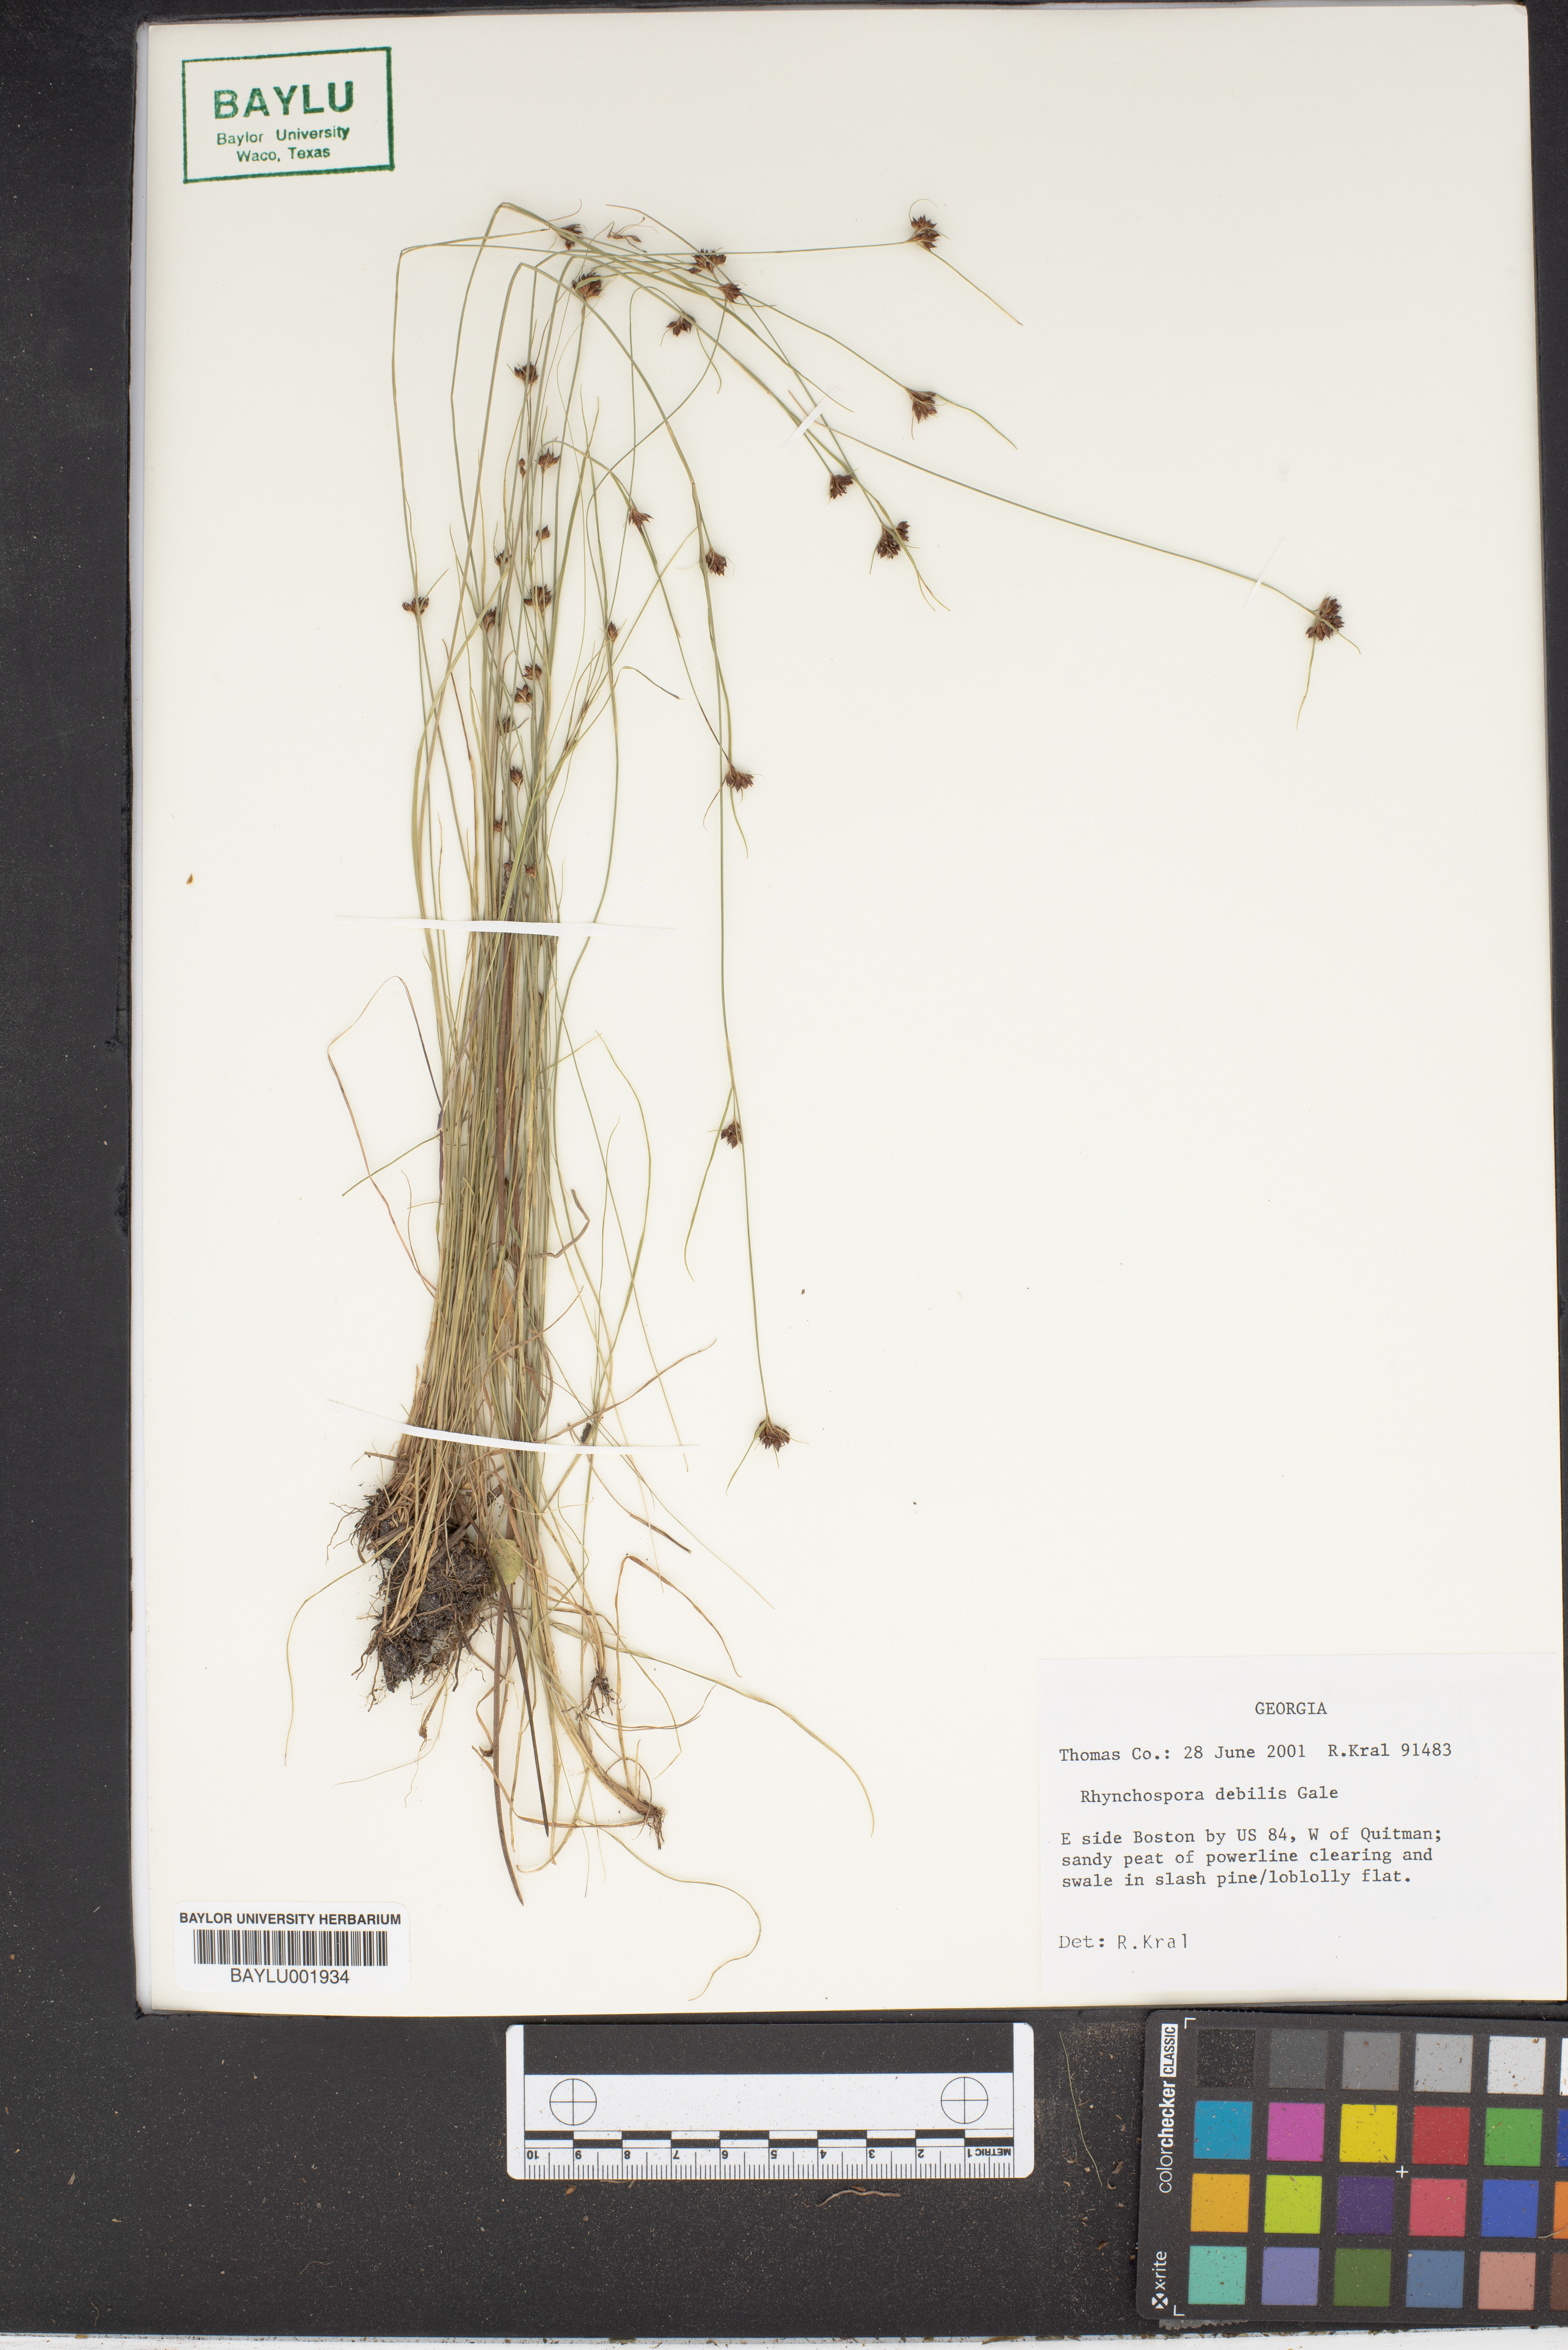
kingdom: Plantae
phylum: Tracheophyta
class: Liliopsida
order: Poales
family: Cyperaceae
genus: Rhynchospora
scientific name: Rhynchospora debilis
